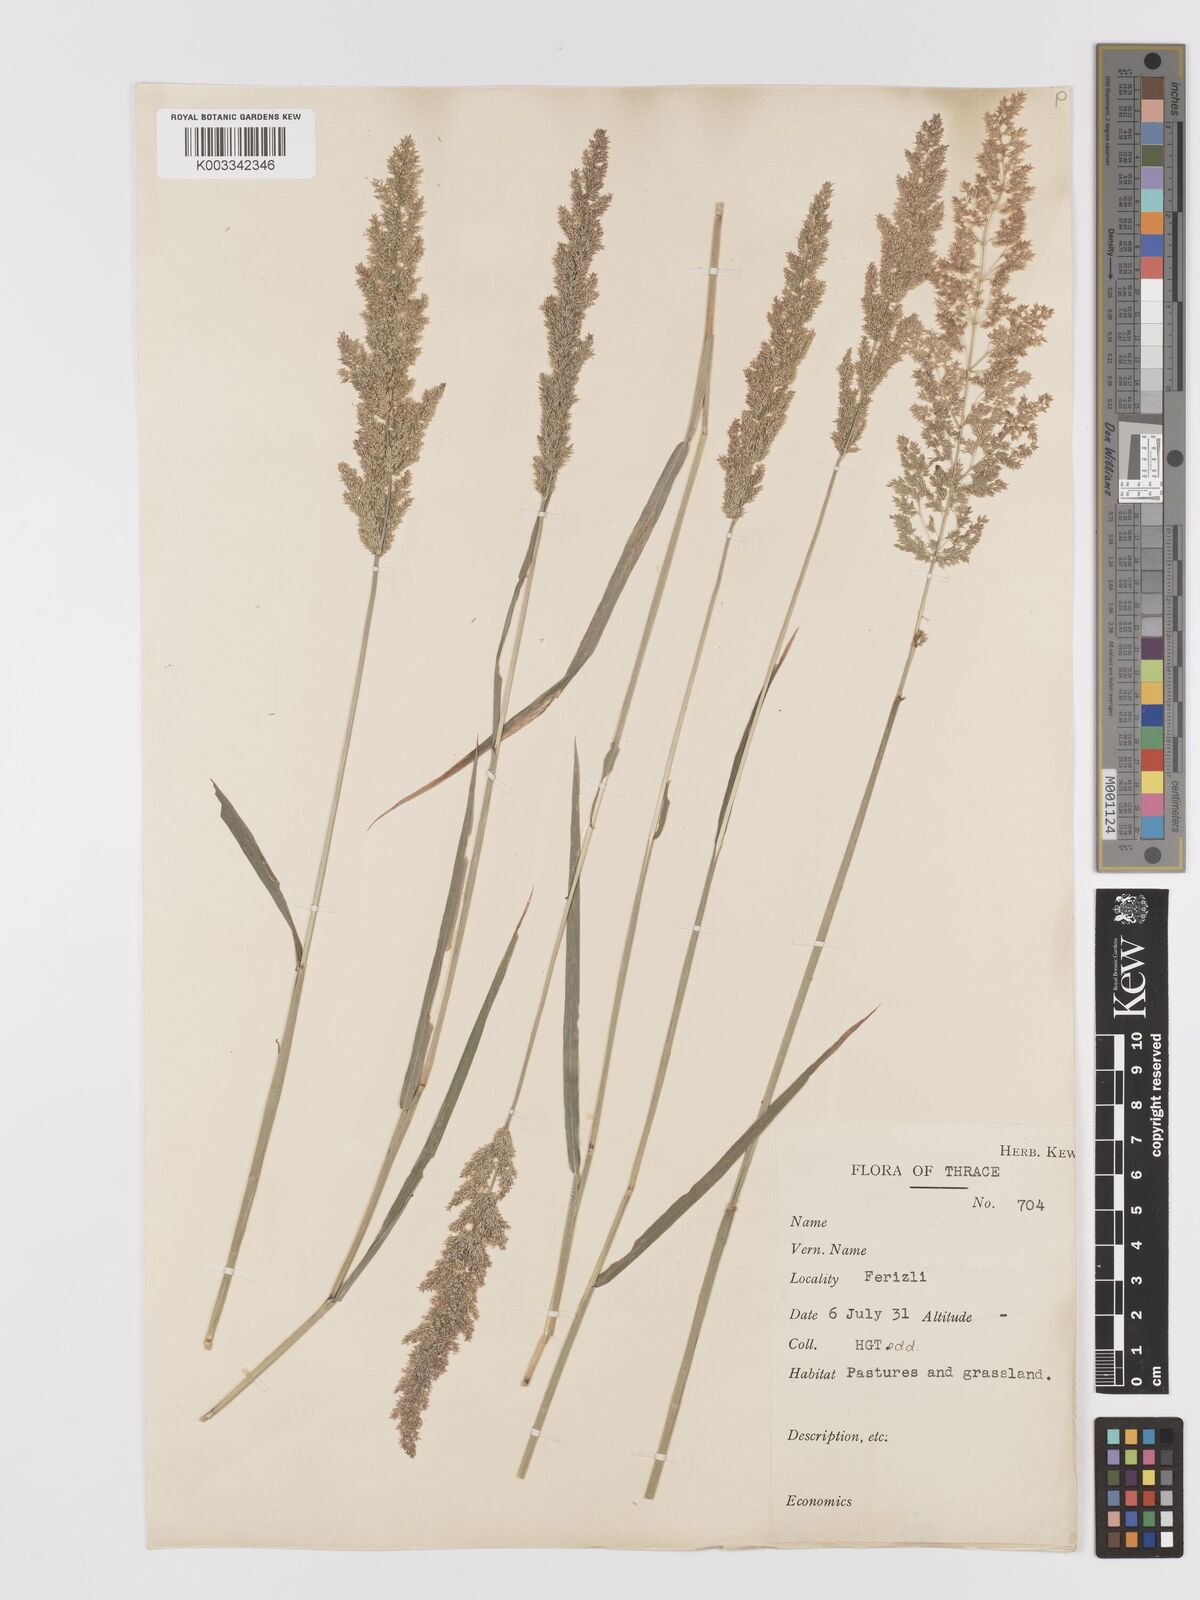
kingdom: Plantae
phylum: Tracheophyta
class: Liliopsida
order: Poales
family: Poaceae
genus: Agrostis
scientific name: Agrostis gigantea
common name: Black bent
